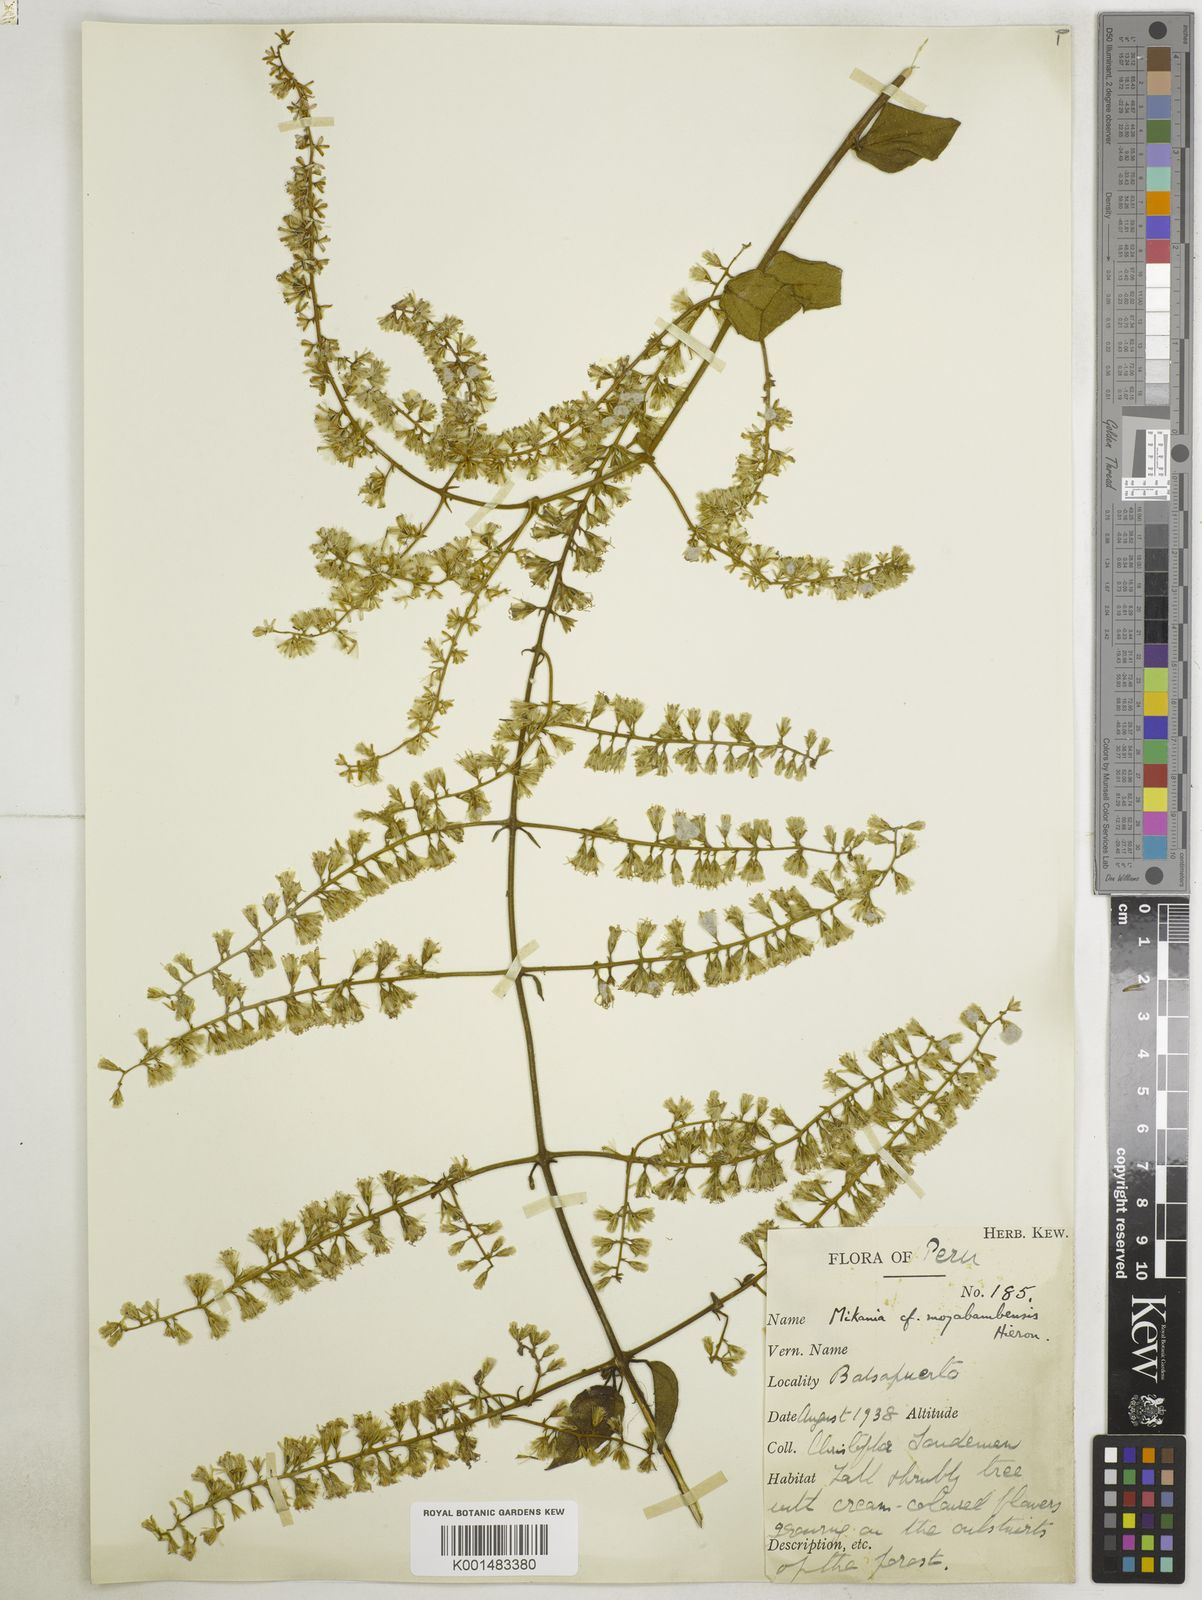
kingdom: Plantae
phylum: Tracheophyta
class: Magnoliopsida
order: Asterales
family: Asteraceae
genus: Mikania
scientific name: Mikania psilostachya
